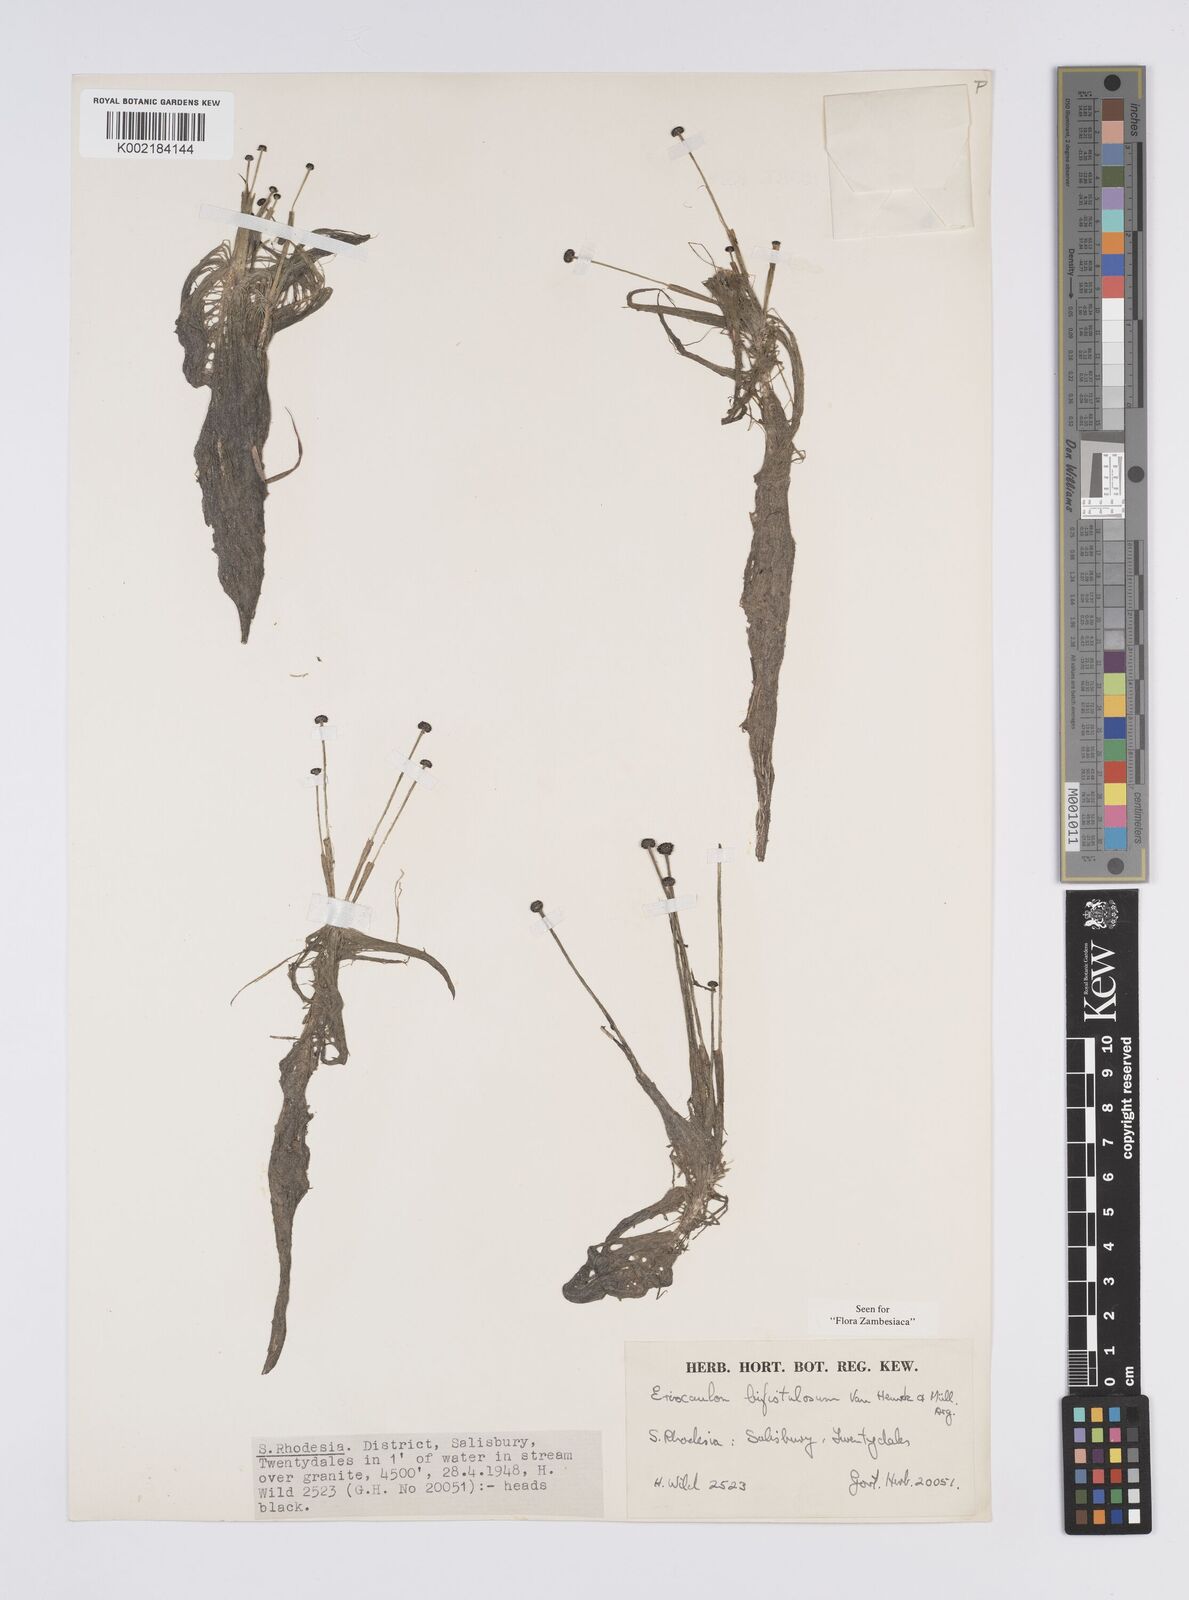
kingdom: Plantae
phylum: Tracheophyta
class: Liliopsida
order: Poales
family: Eriocaulaceae
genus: Eriocaulon
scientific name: Eriocaulon setaceum
